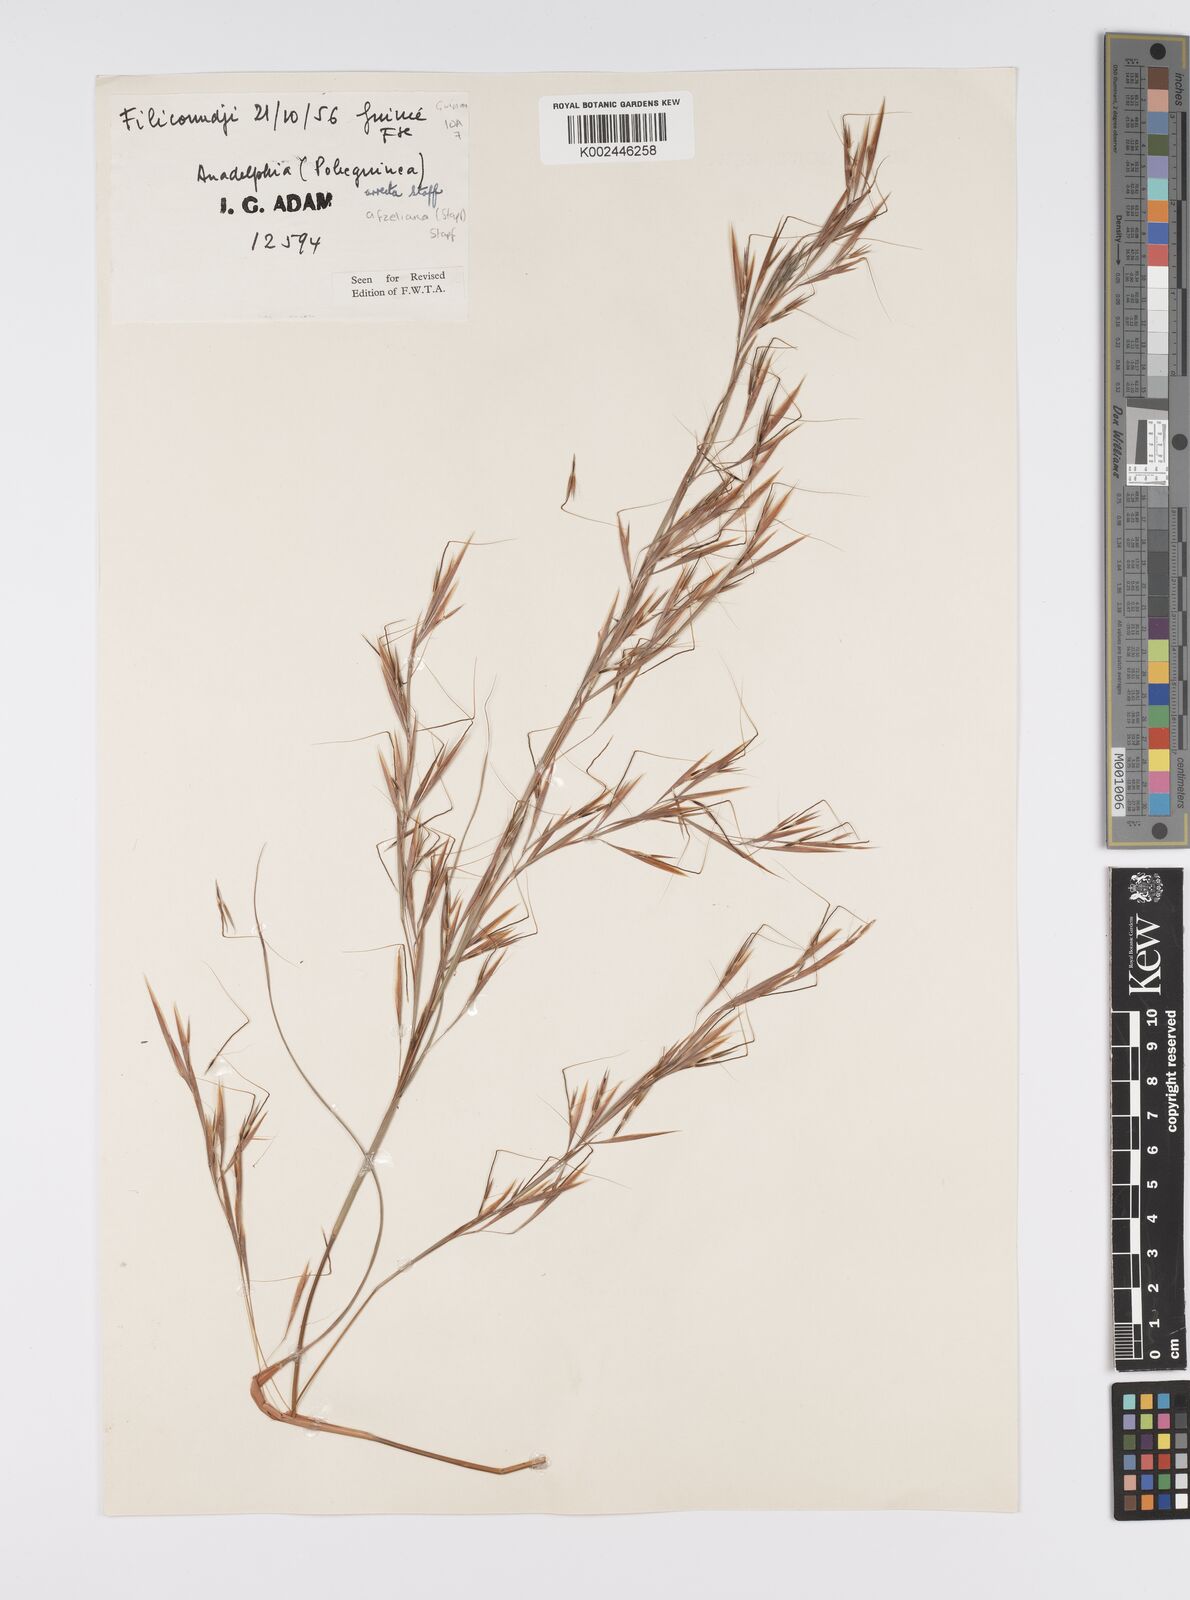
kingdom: Plantae
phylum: Tracheophyta
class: Liliopsida
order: Poales
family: Poaceae
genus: Anadelphia
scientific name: Anadelphia afzeliana
